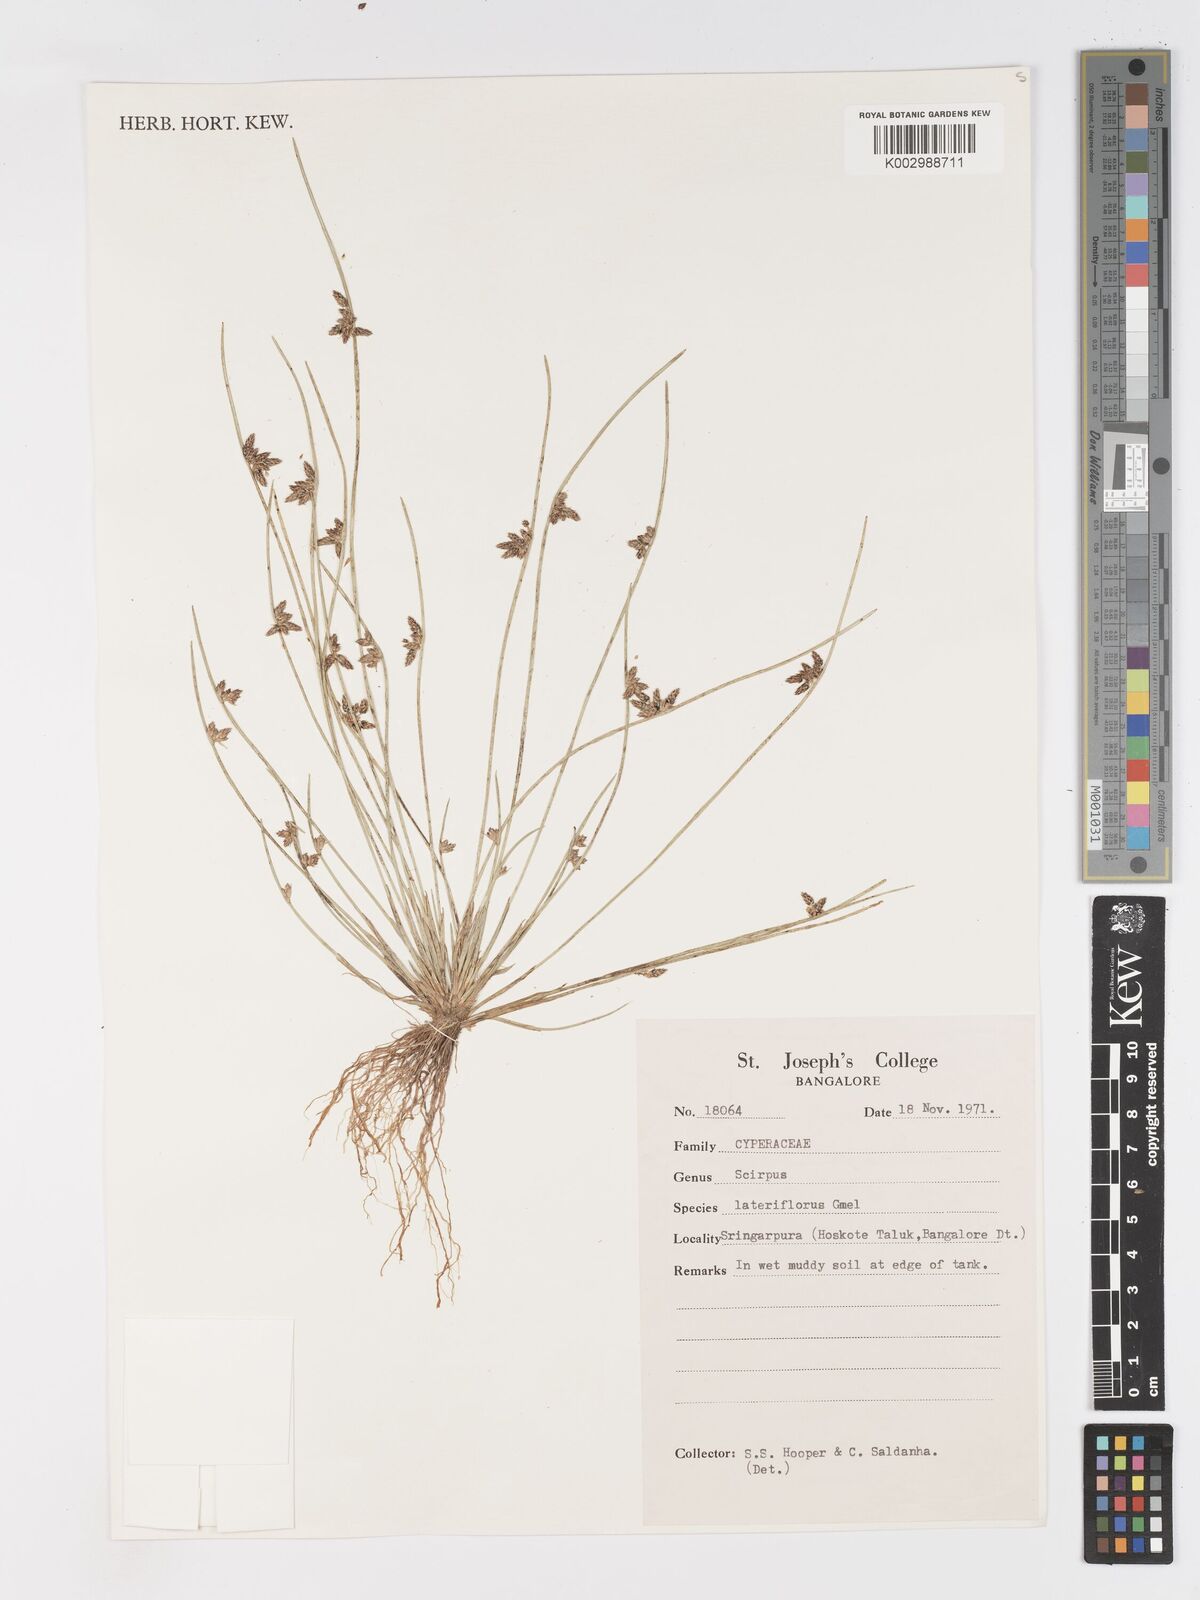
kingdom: Plantae
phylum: Tracheophyta
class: Liliopsida
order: Poales
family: Cyperaceae
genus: Schoenoplectiella
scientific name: Schoenoplectiella lateriflora
